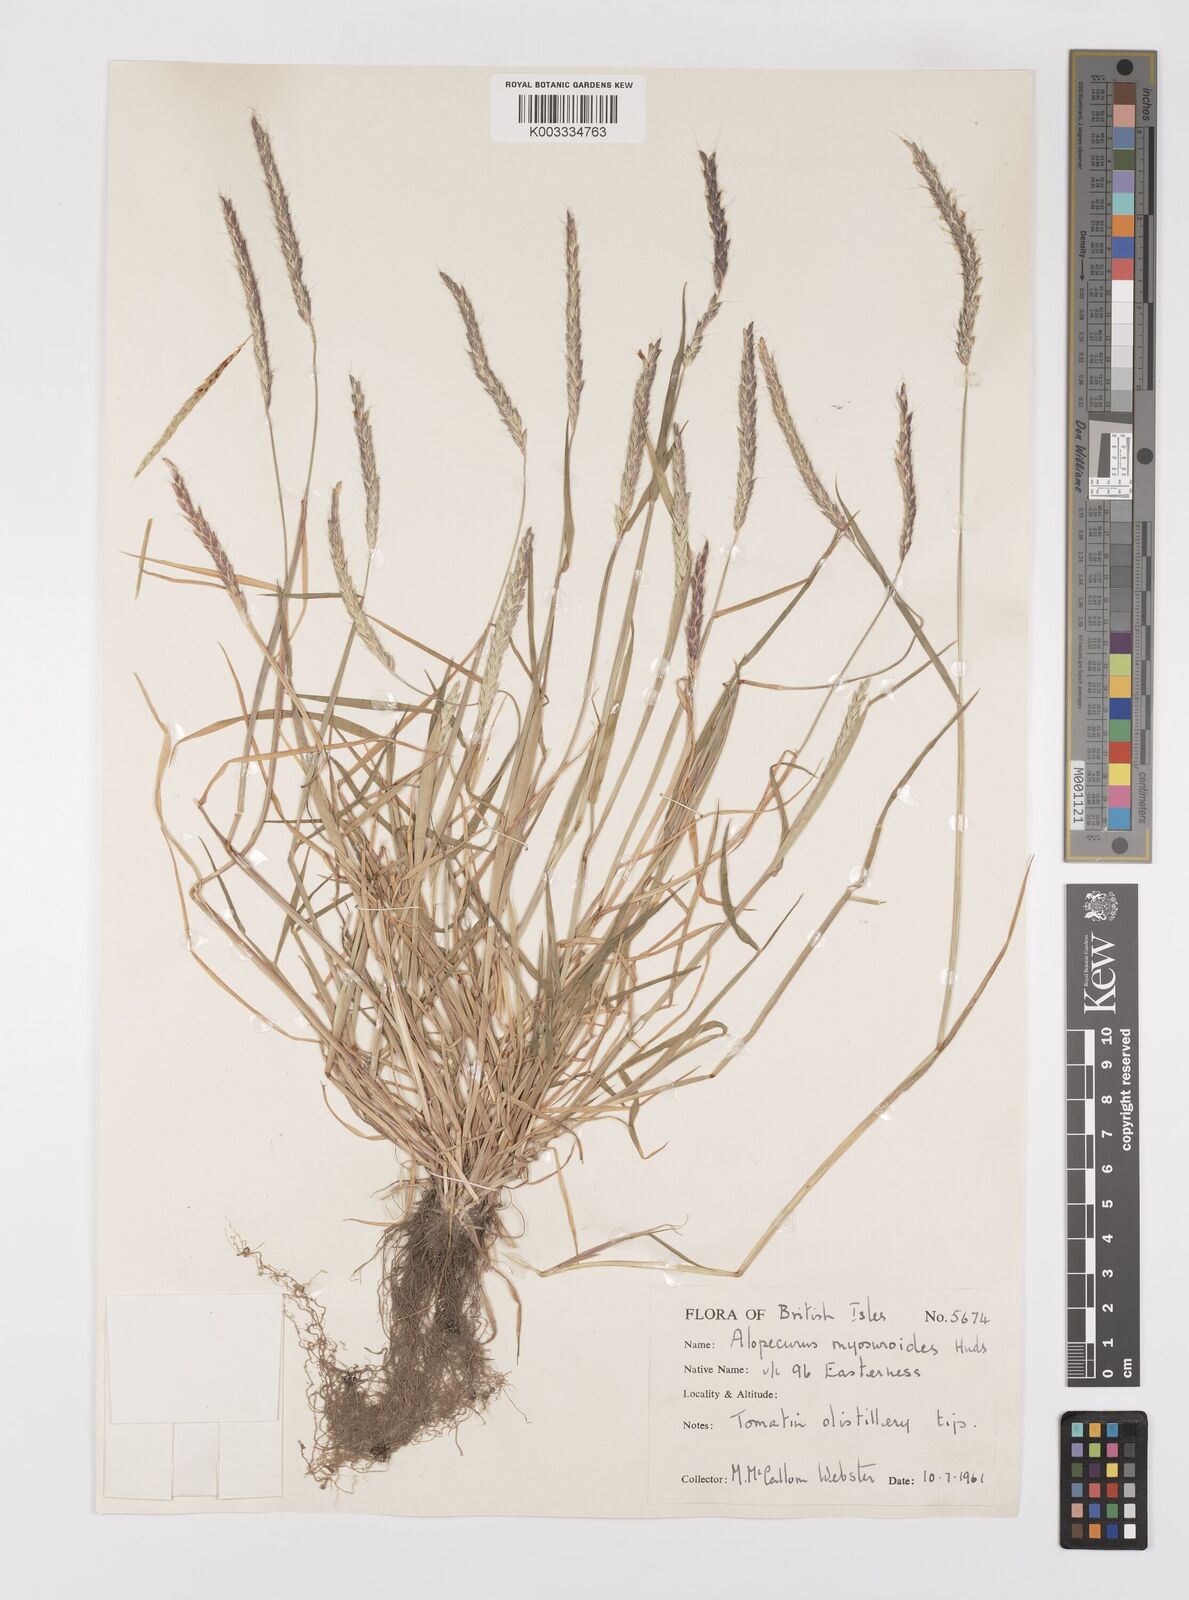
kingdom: Plantae
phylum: Tracheophyta
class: Liliopsida
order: Poales
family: Poaceae
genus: Alopecurus
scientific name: Alopecurus myosuroides
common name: Black-grass
